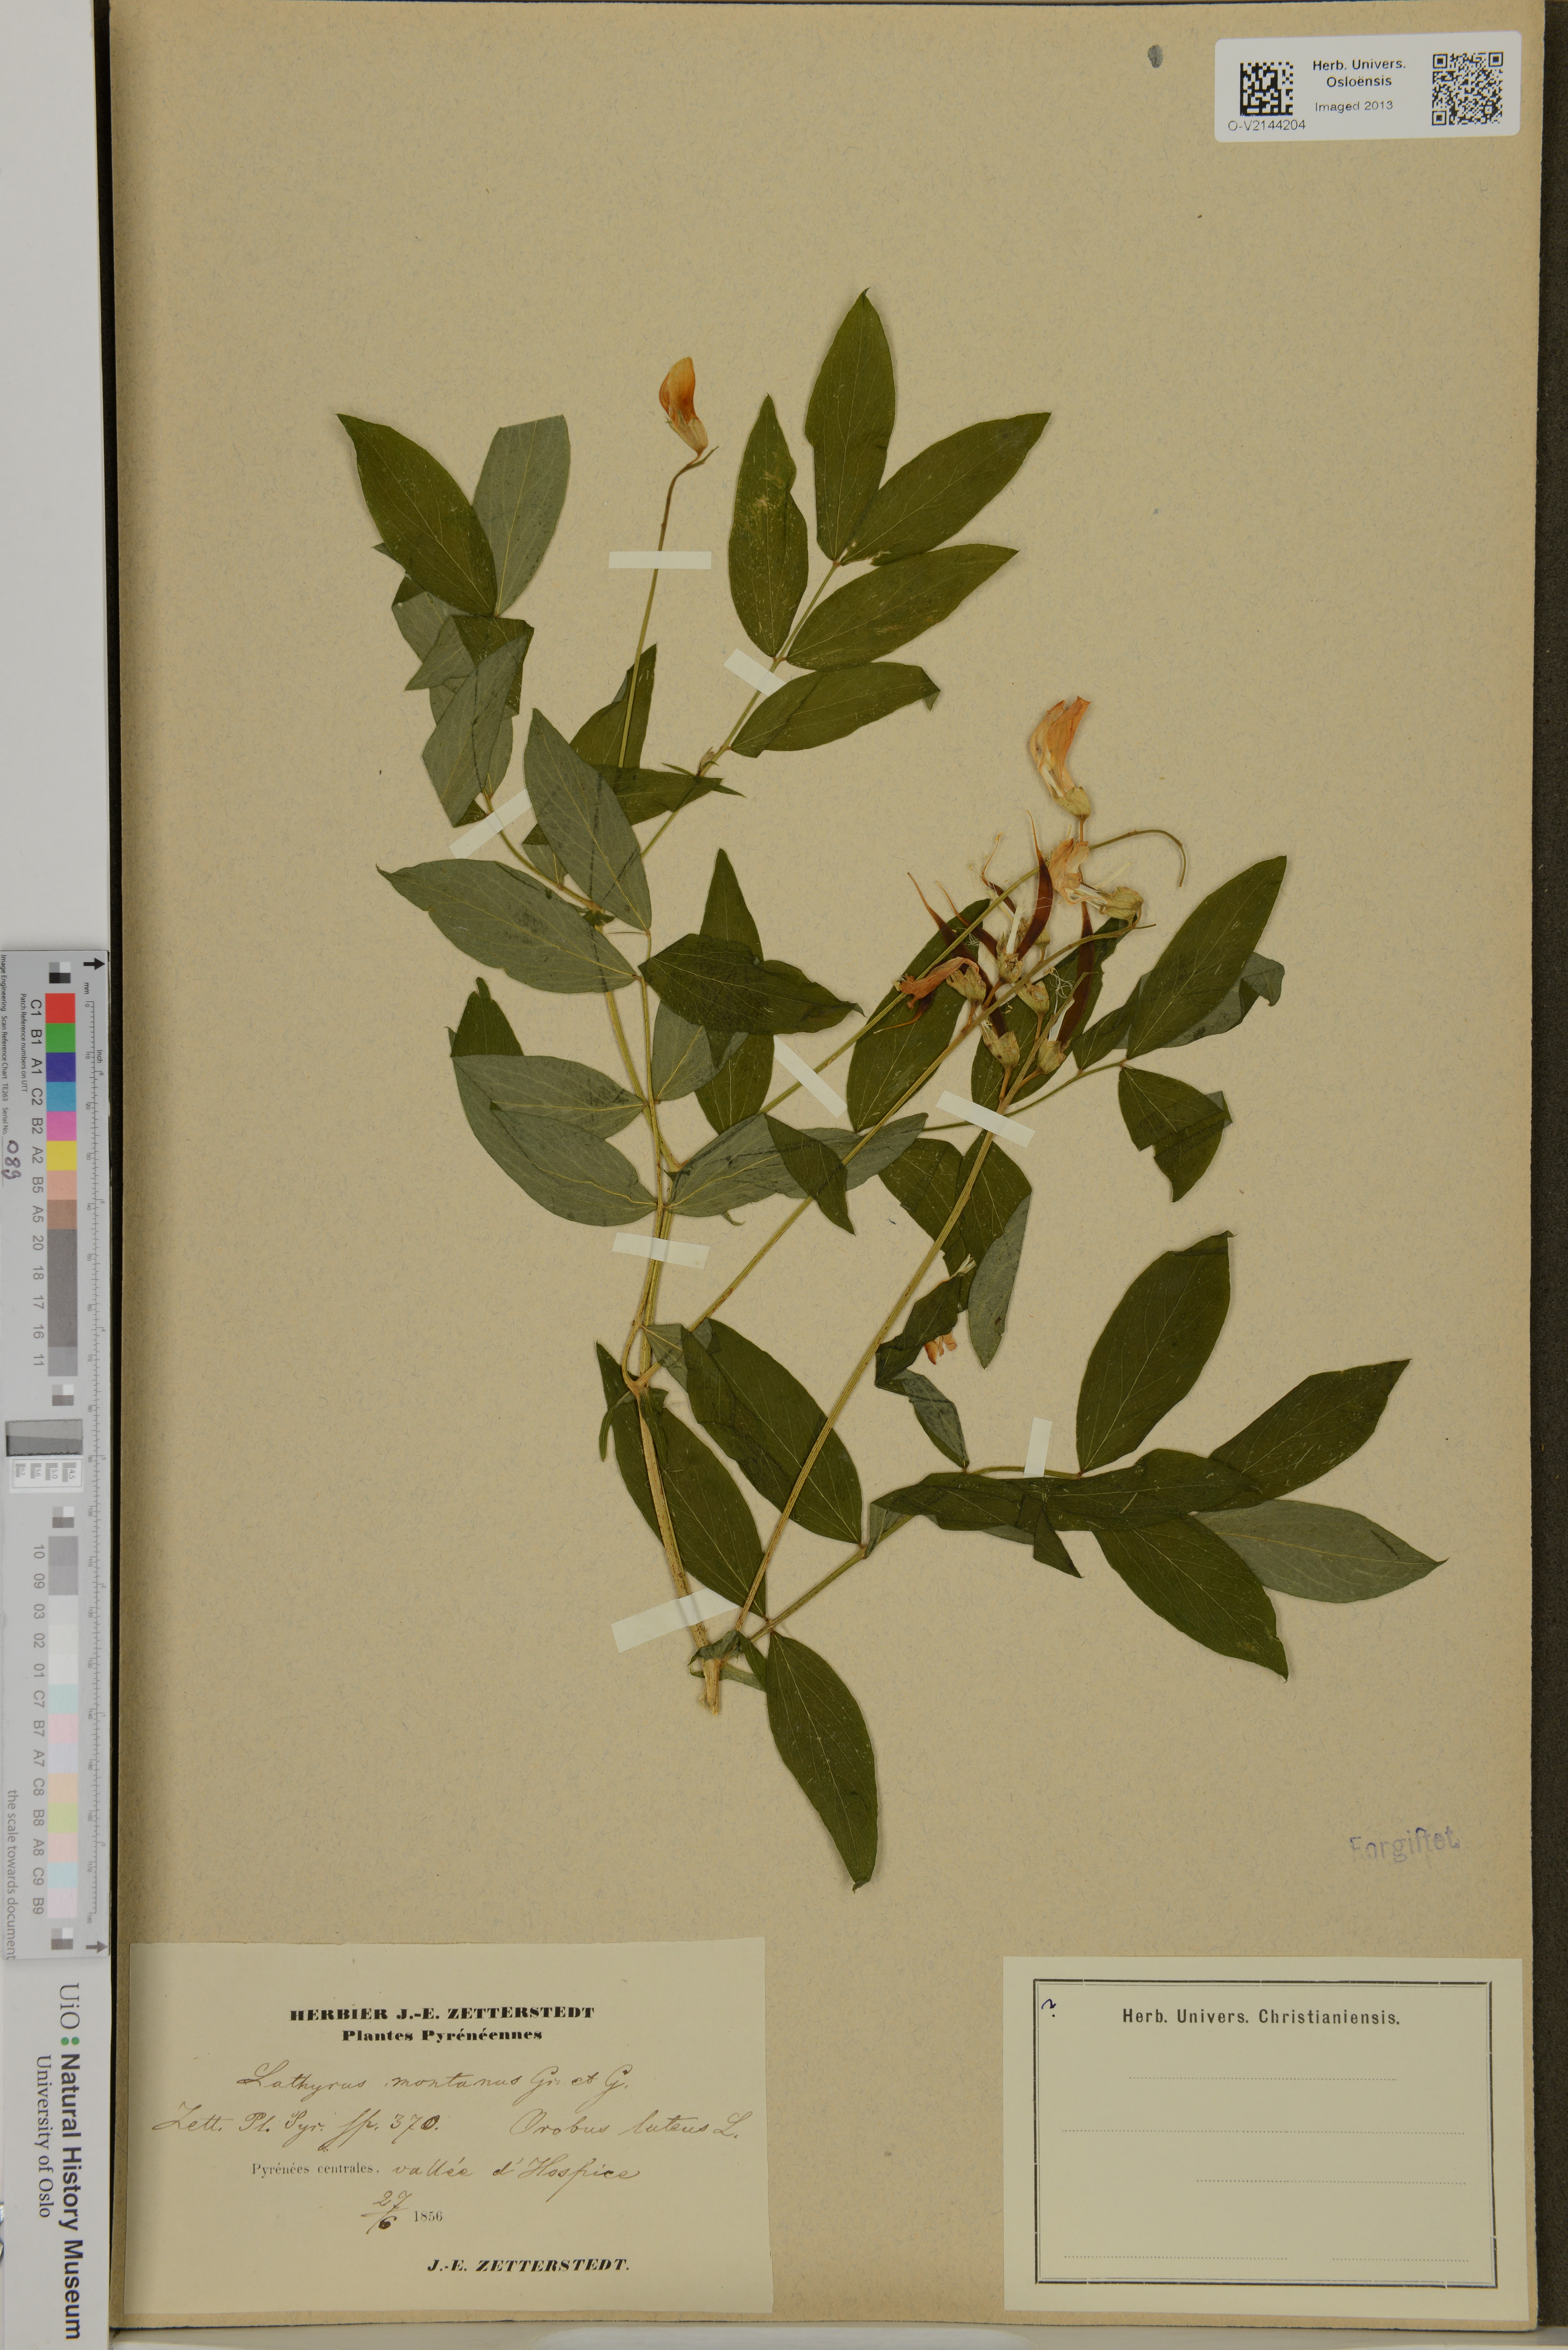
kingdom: Plantae
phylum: Tracheophyta
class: Magnoliopsida
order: Fabales
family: Fabaceae
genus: Lathyrus
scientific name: Lathyrus linifolius
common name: Bitter-vetch
